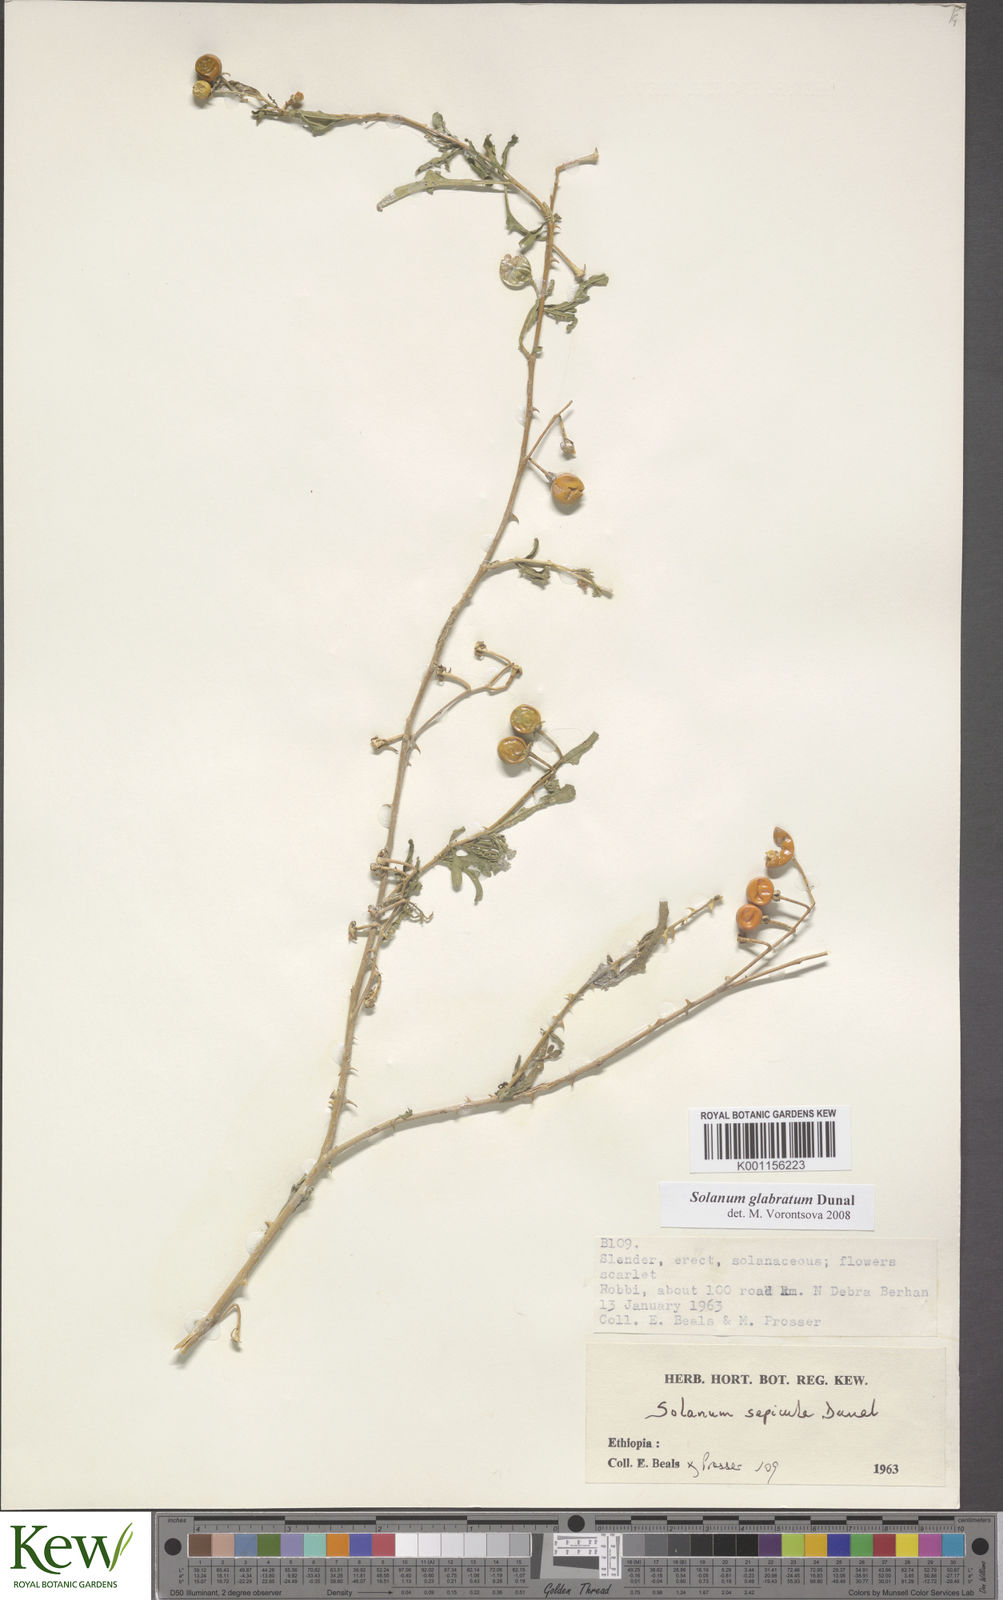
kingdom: Plantae
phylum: Tracheophyta
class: Magnoliopsida
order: Solanales
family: Solanaceae
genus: Solanum
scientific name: Solanum glabratum
